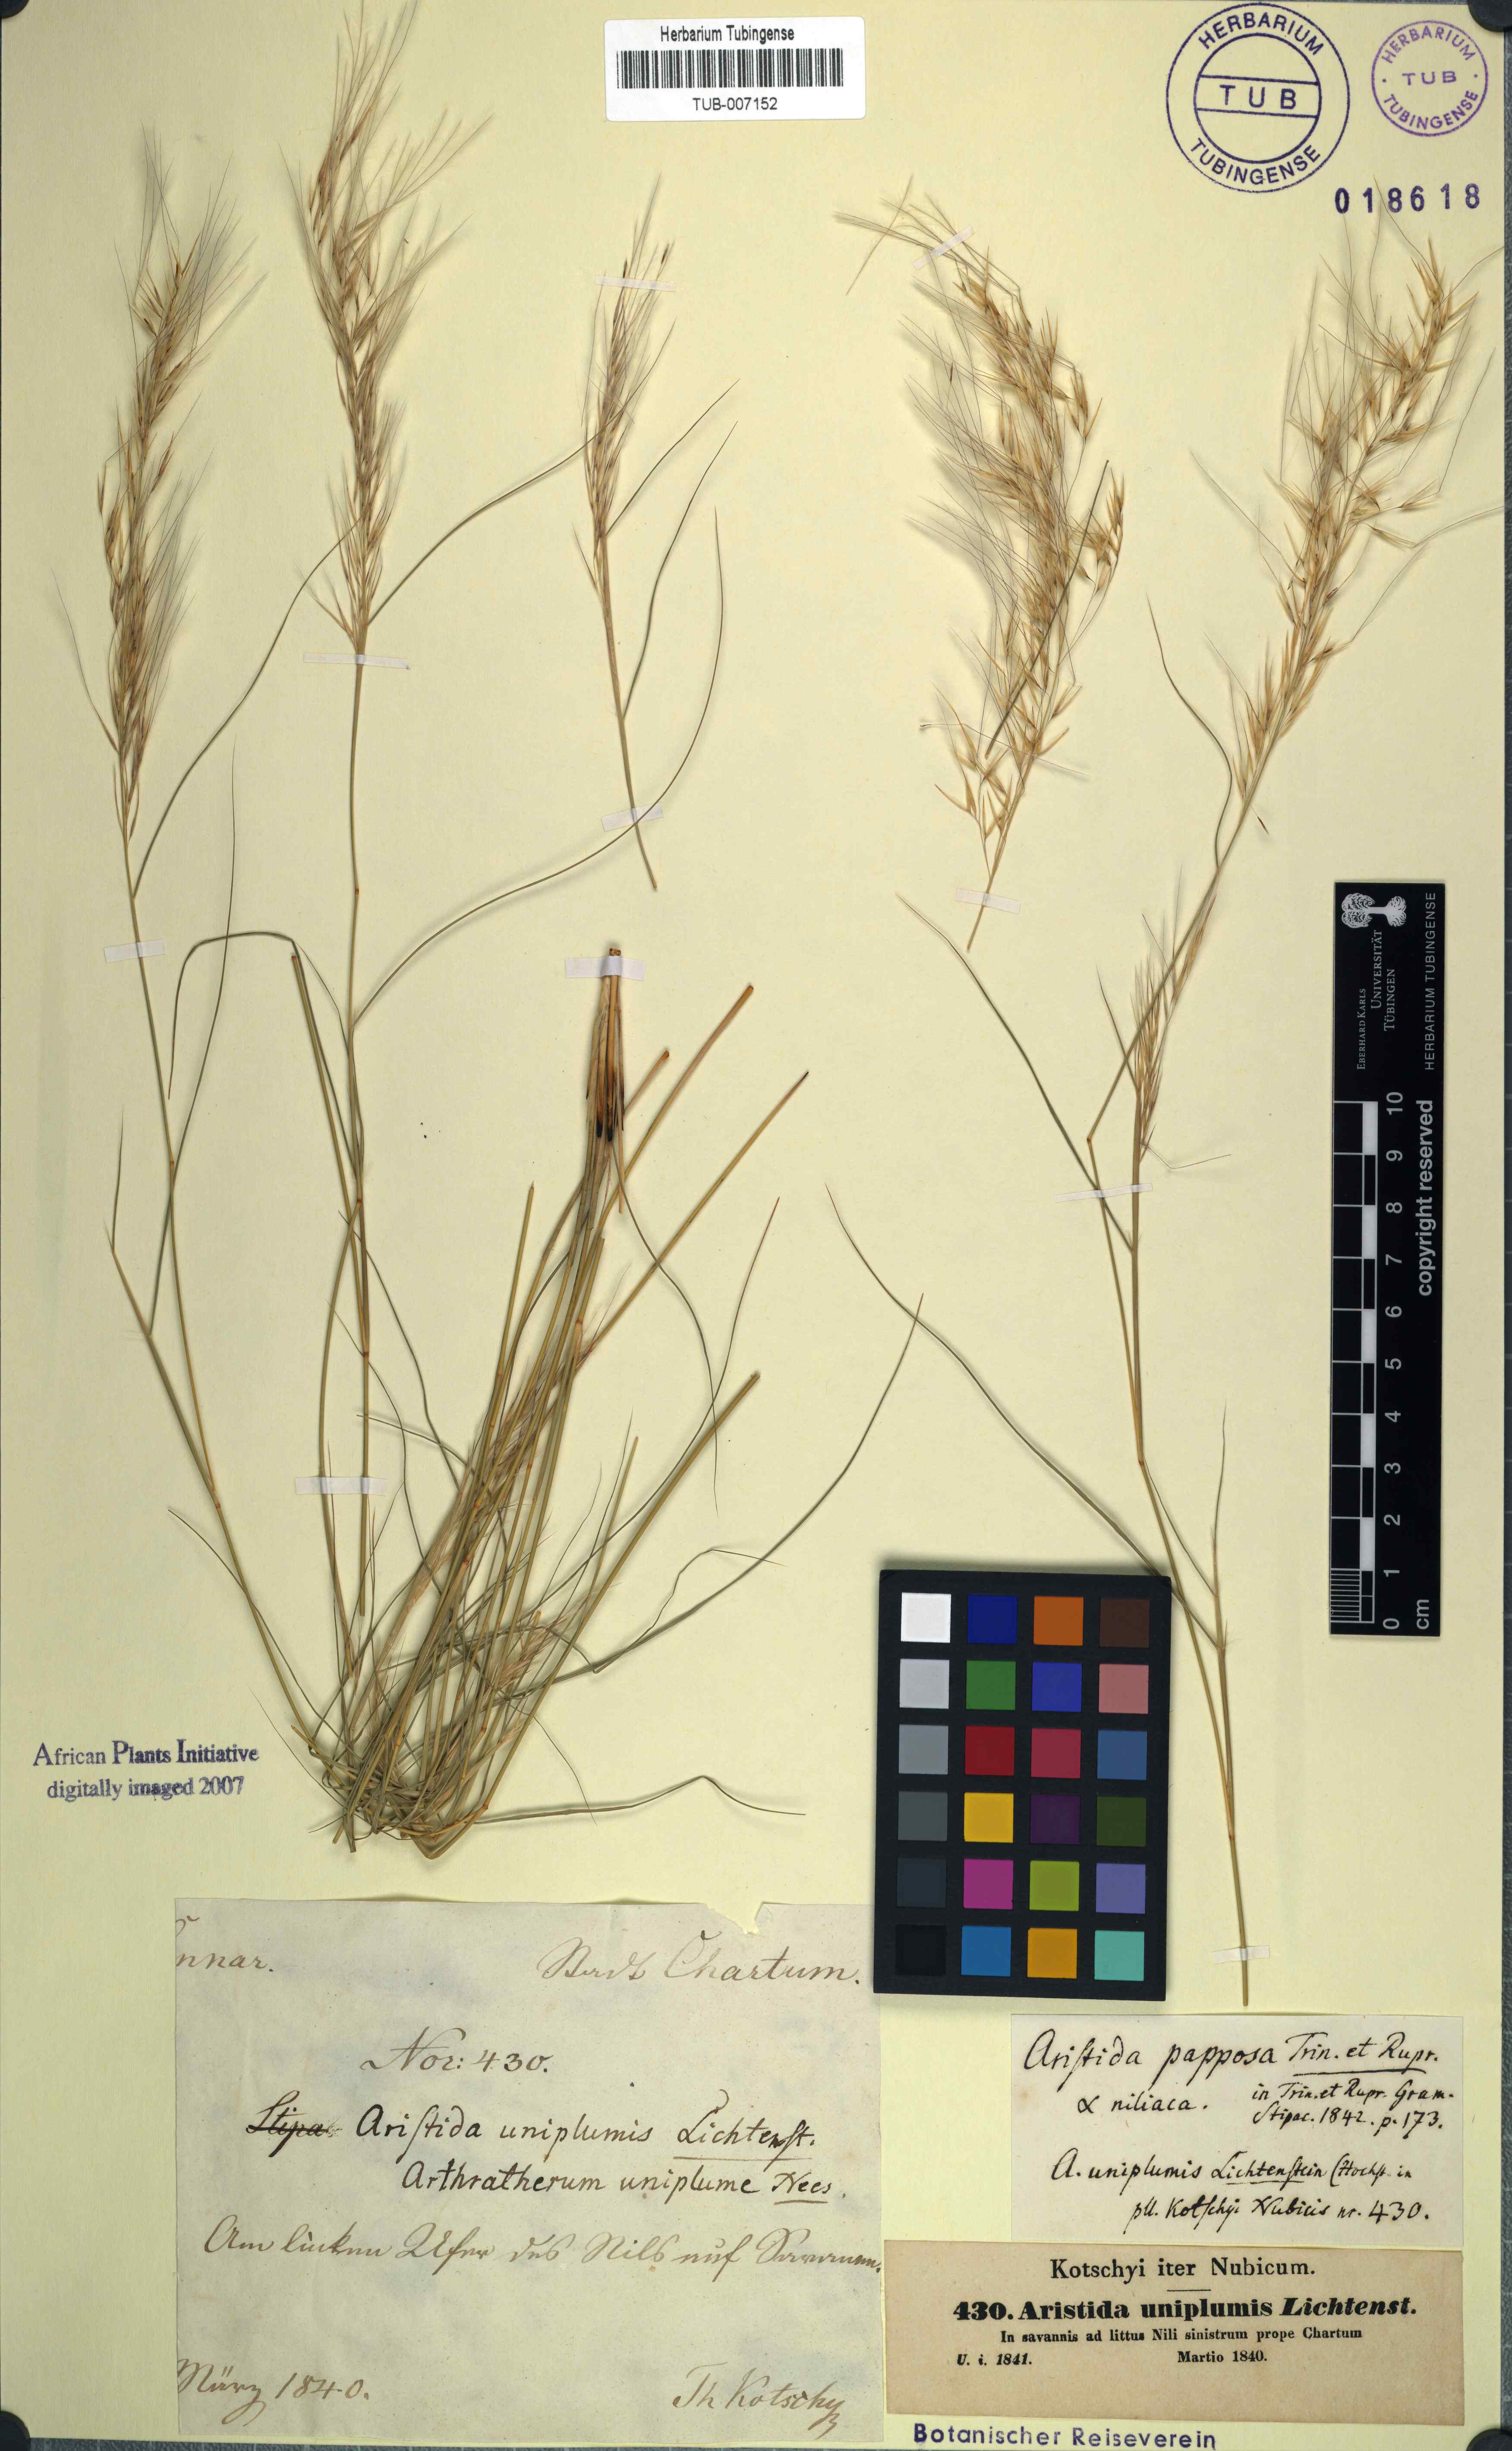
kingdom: Plantae
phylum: Tracheophyta
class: Liliopsida
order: Poales
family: Poaceae
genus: Stipagrostis
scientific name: Stipagrostis uniplumis
